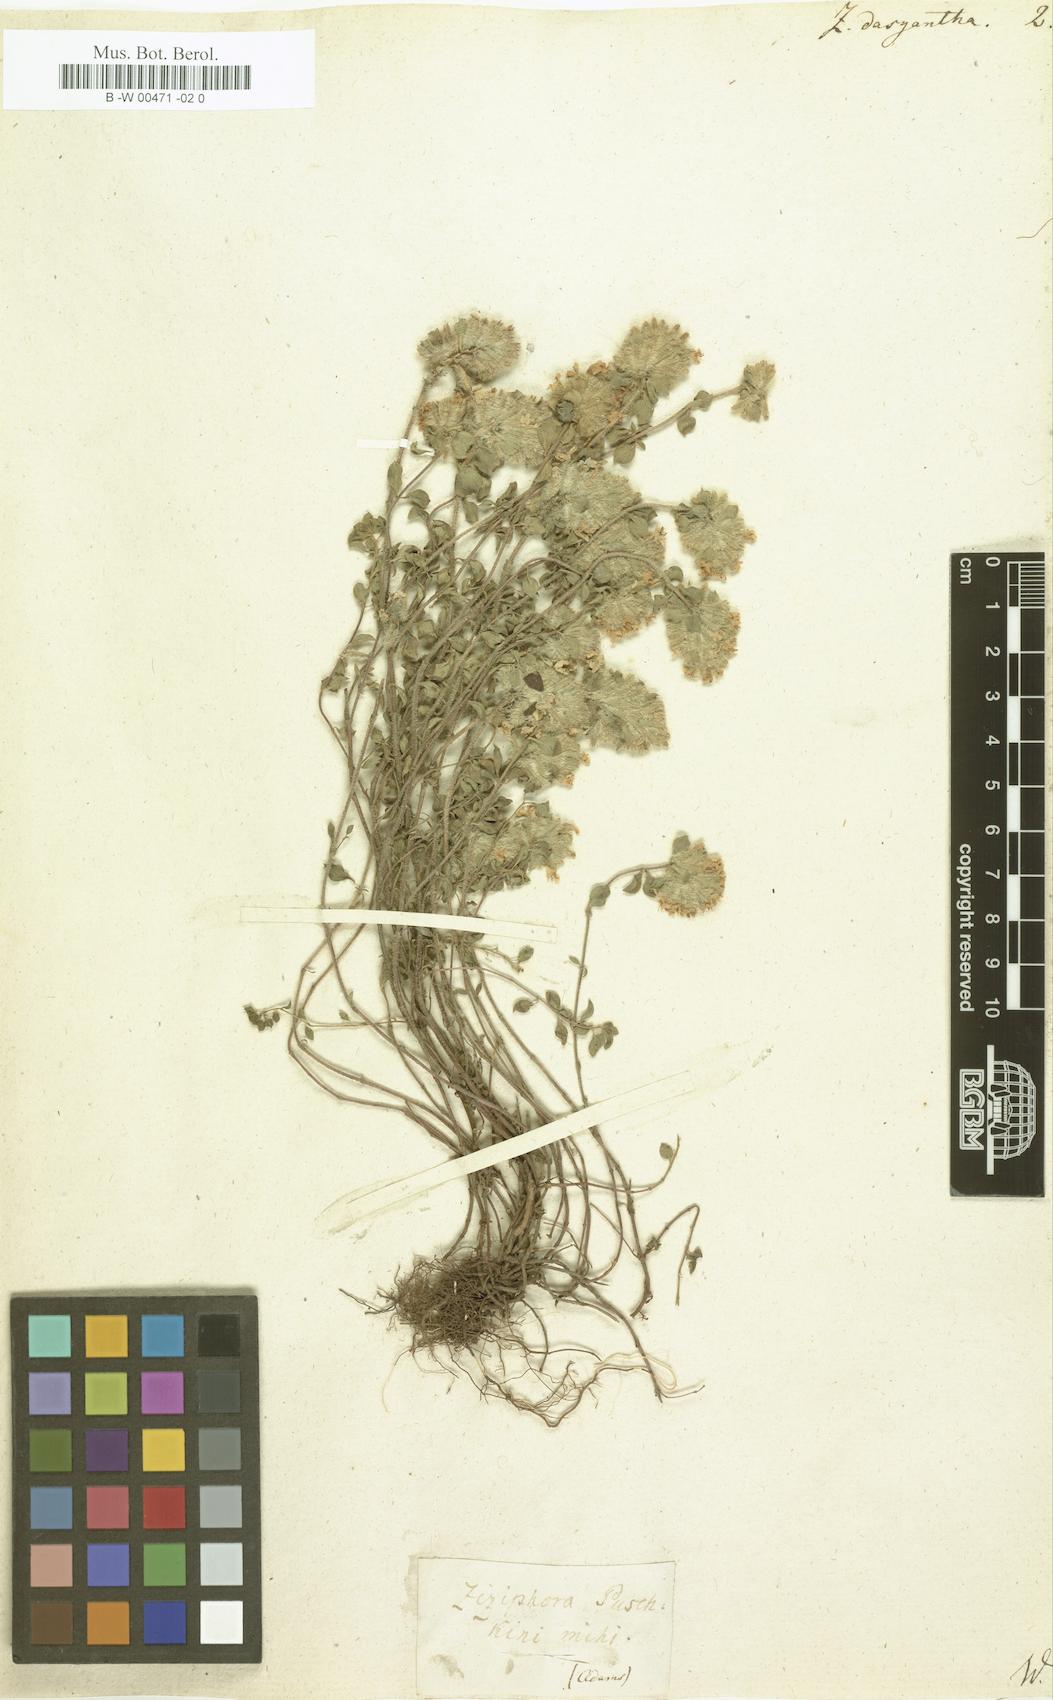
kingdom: Plantae
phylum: Tracheophyta
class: Magnoliopsida
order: Lamiales
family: Lamiaceae
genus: Ziziphora
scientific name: Ziziphora clinopodioides
